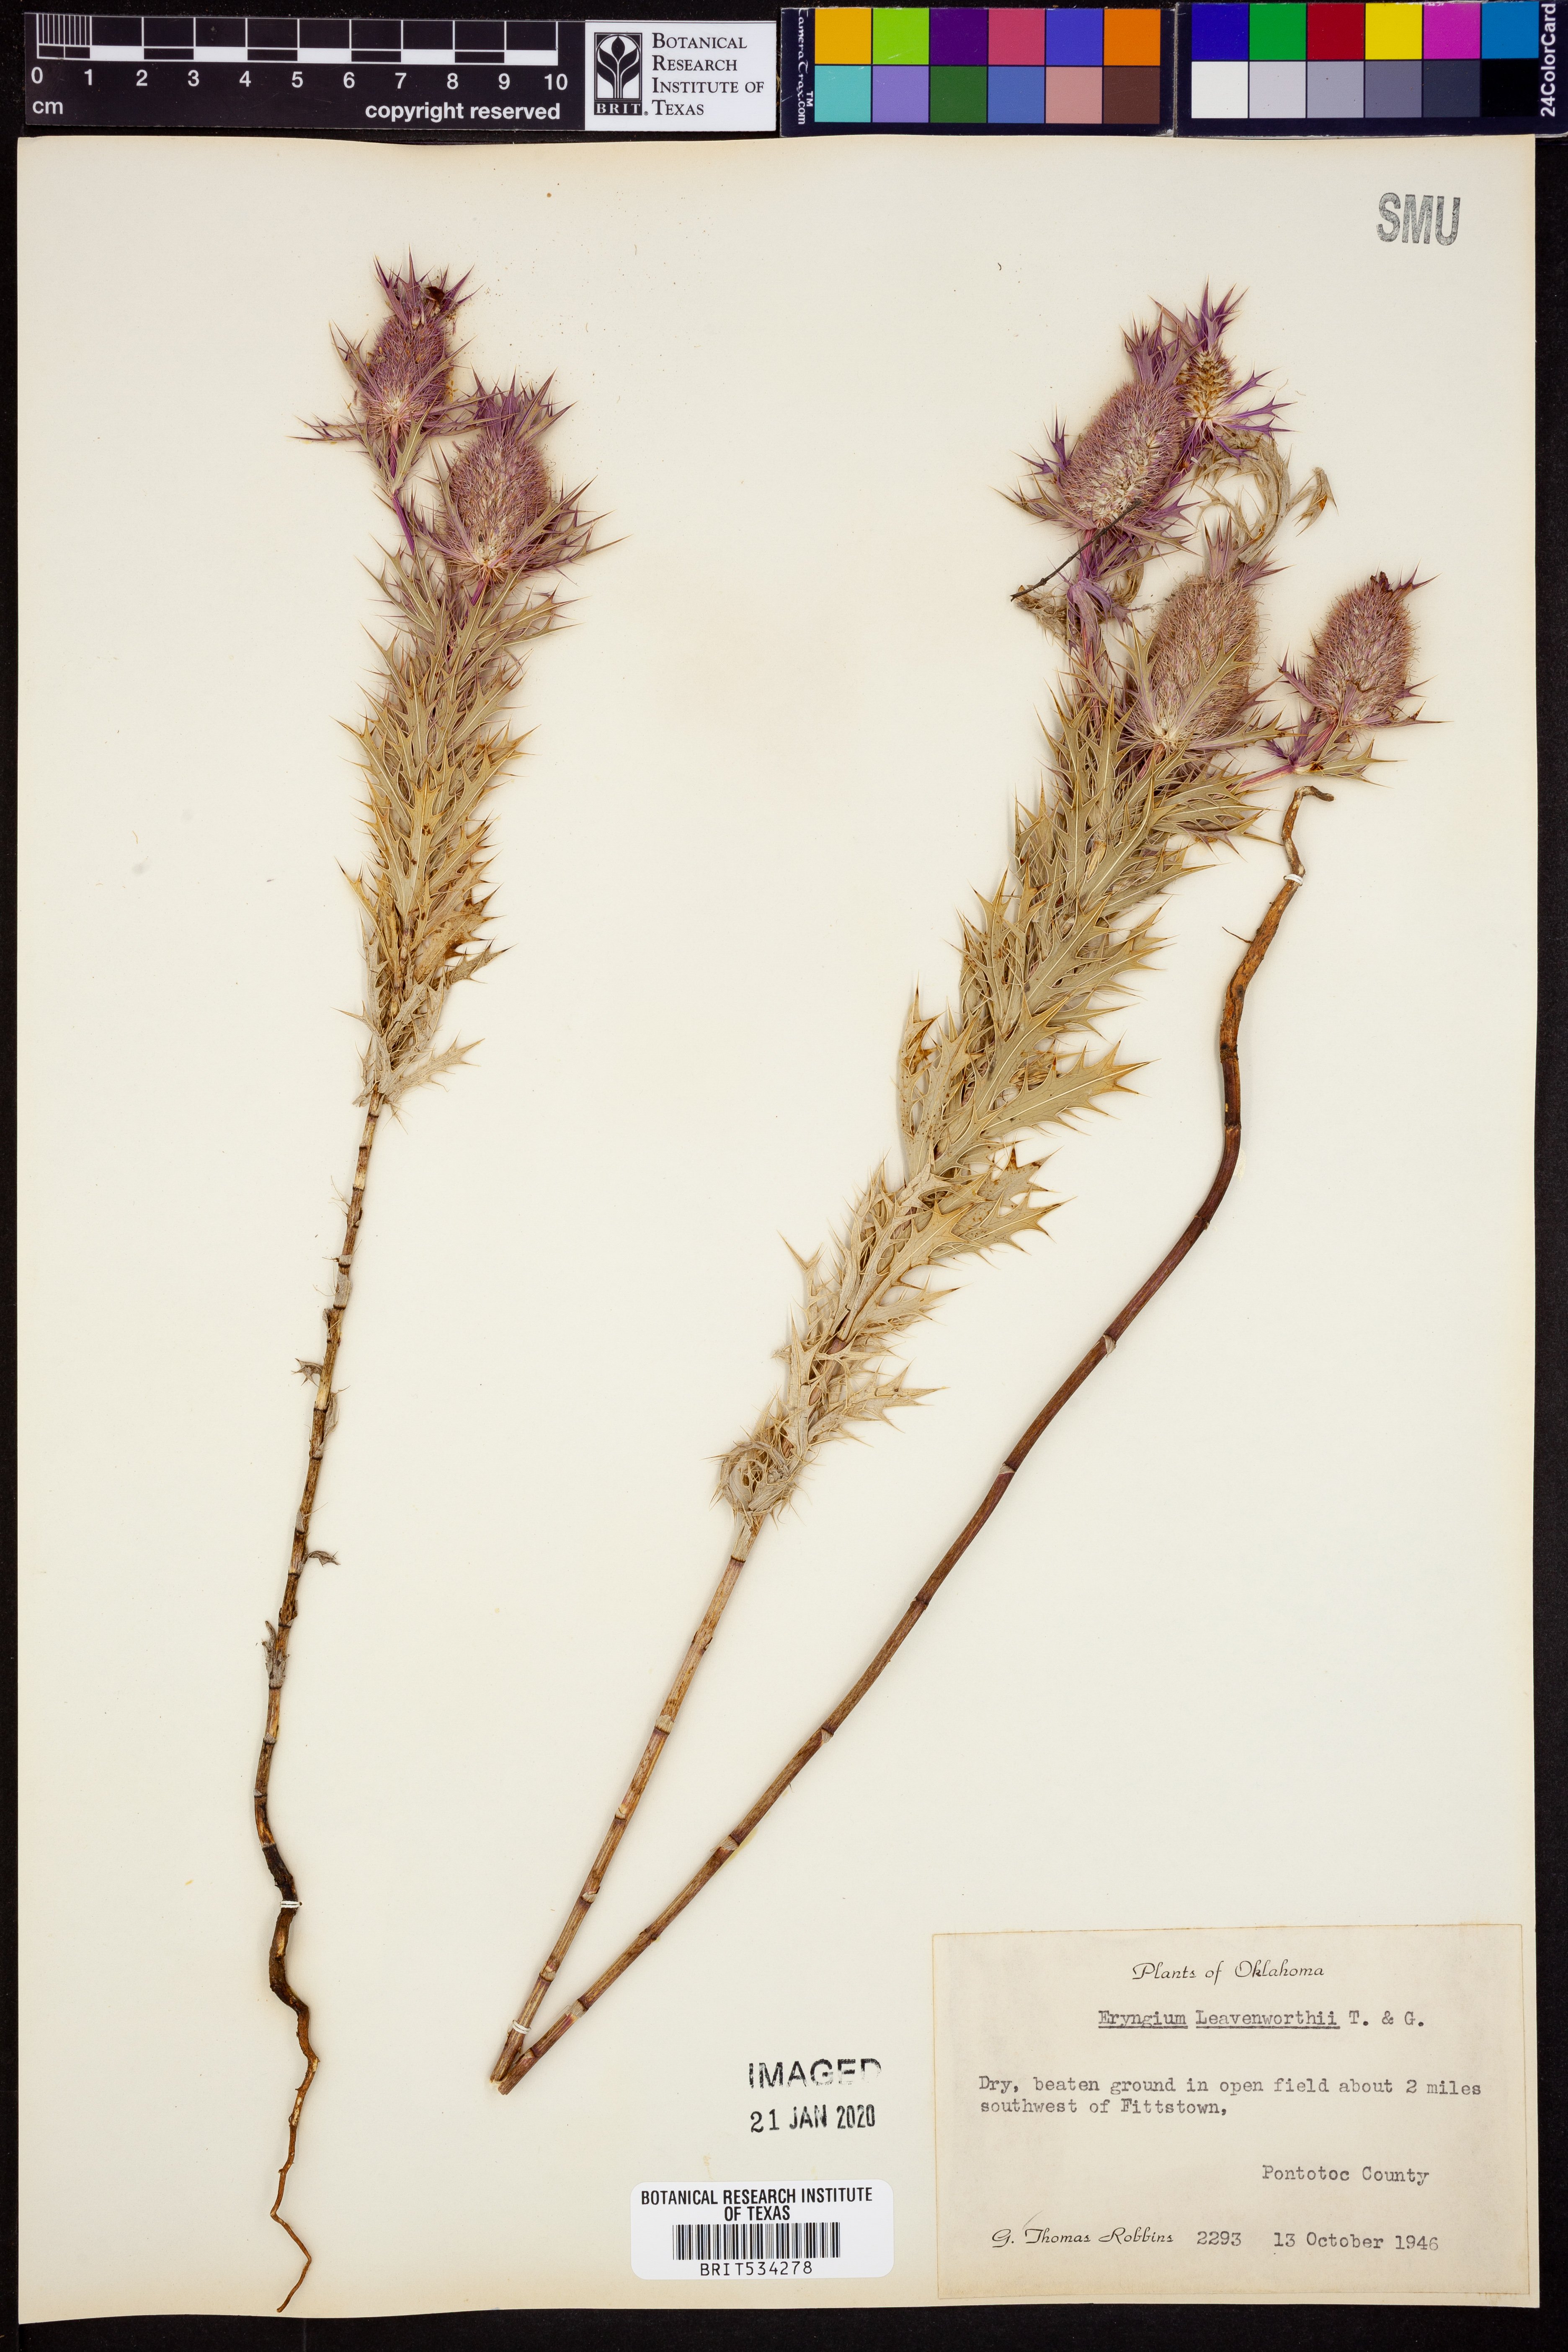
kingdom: Plantae
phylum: Tracheophyta
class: Magnoliopsida
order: Apiales
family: Apiaceae
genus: Eryngium
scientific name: Eryngium leavenworthii
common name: Leavenworth's eryngo
